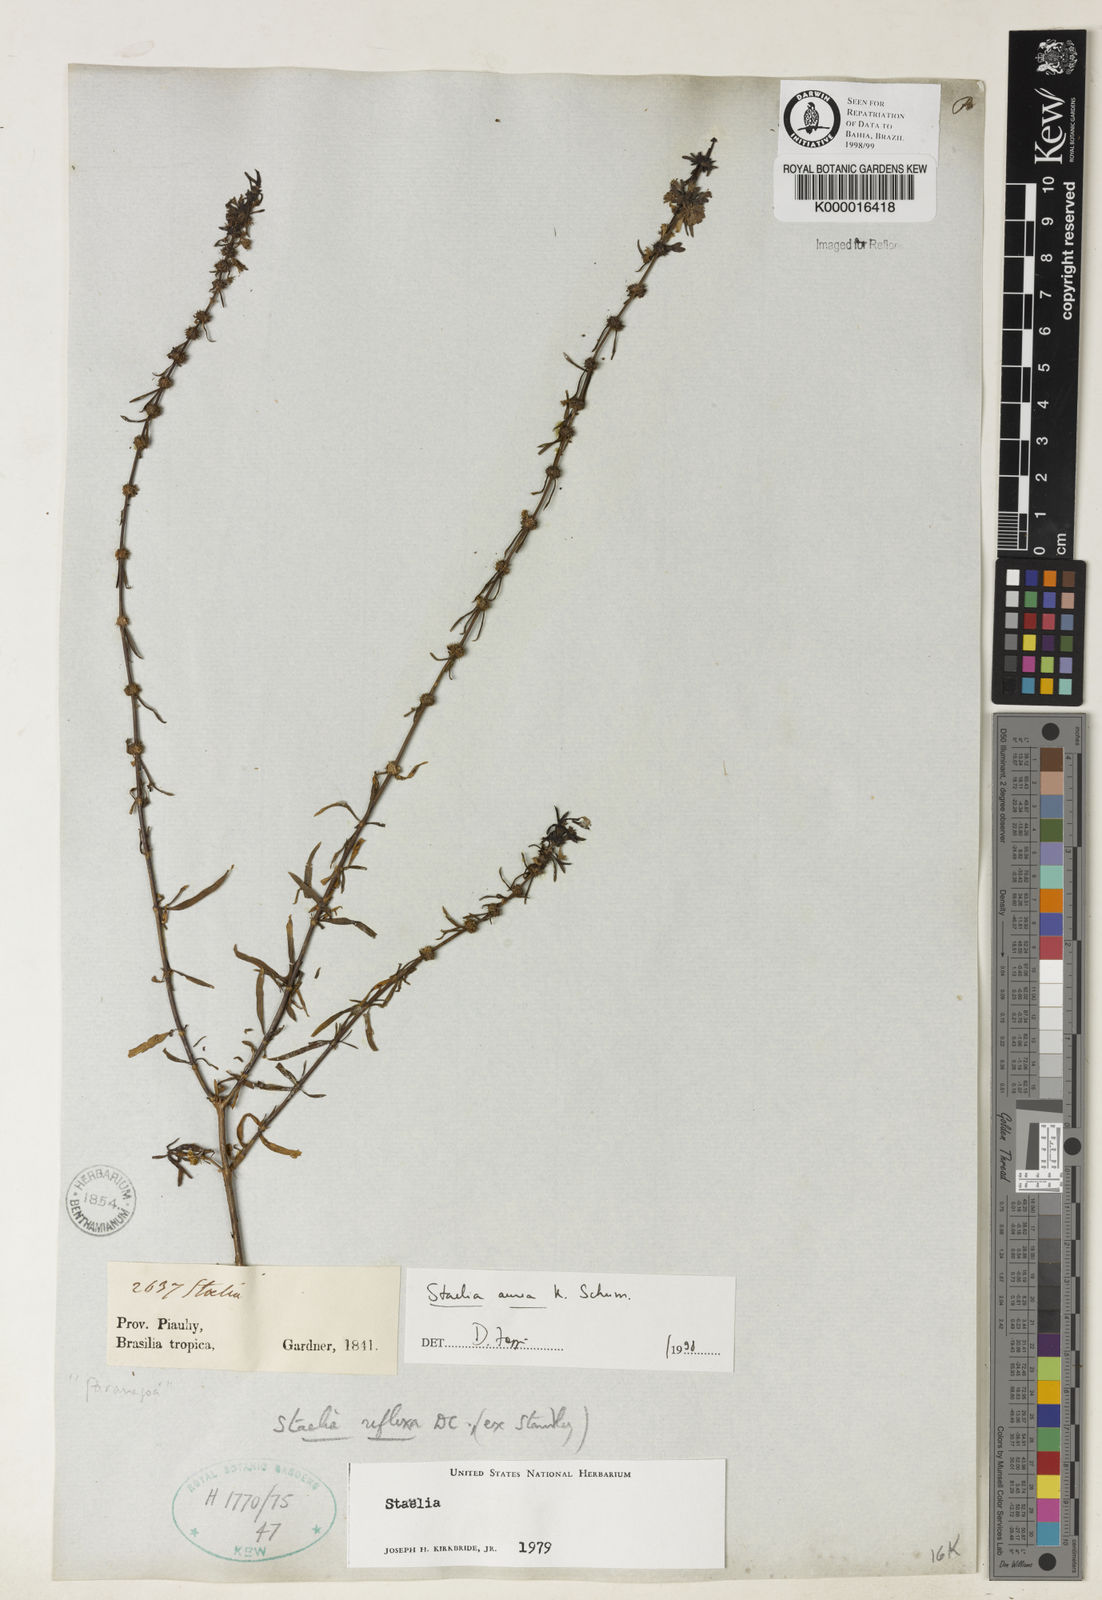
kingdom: Plantae
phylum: Tracheophyta
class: Magnoliopsida
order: Gentianales
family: Rubiaceae
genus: Staelia
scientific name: Staelia aurea
